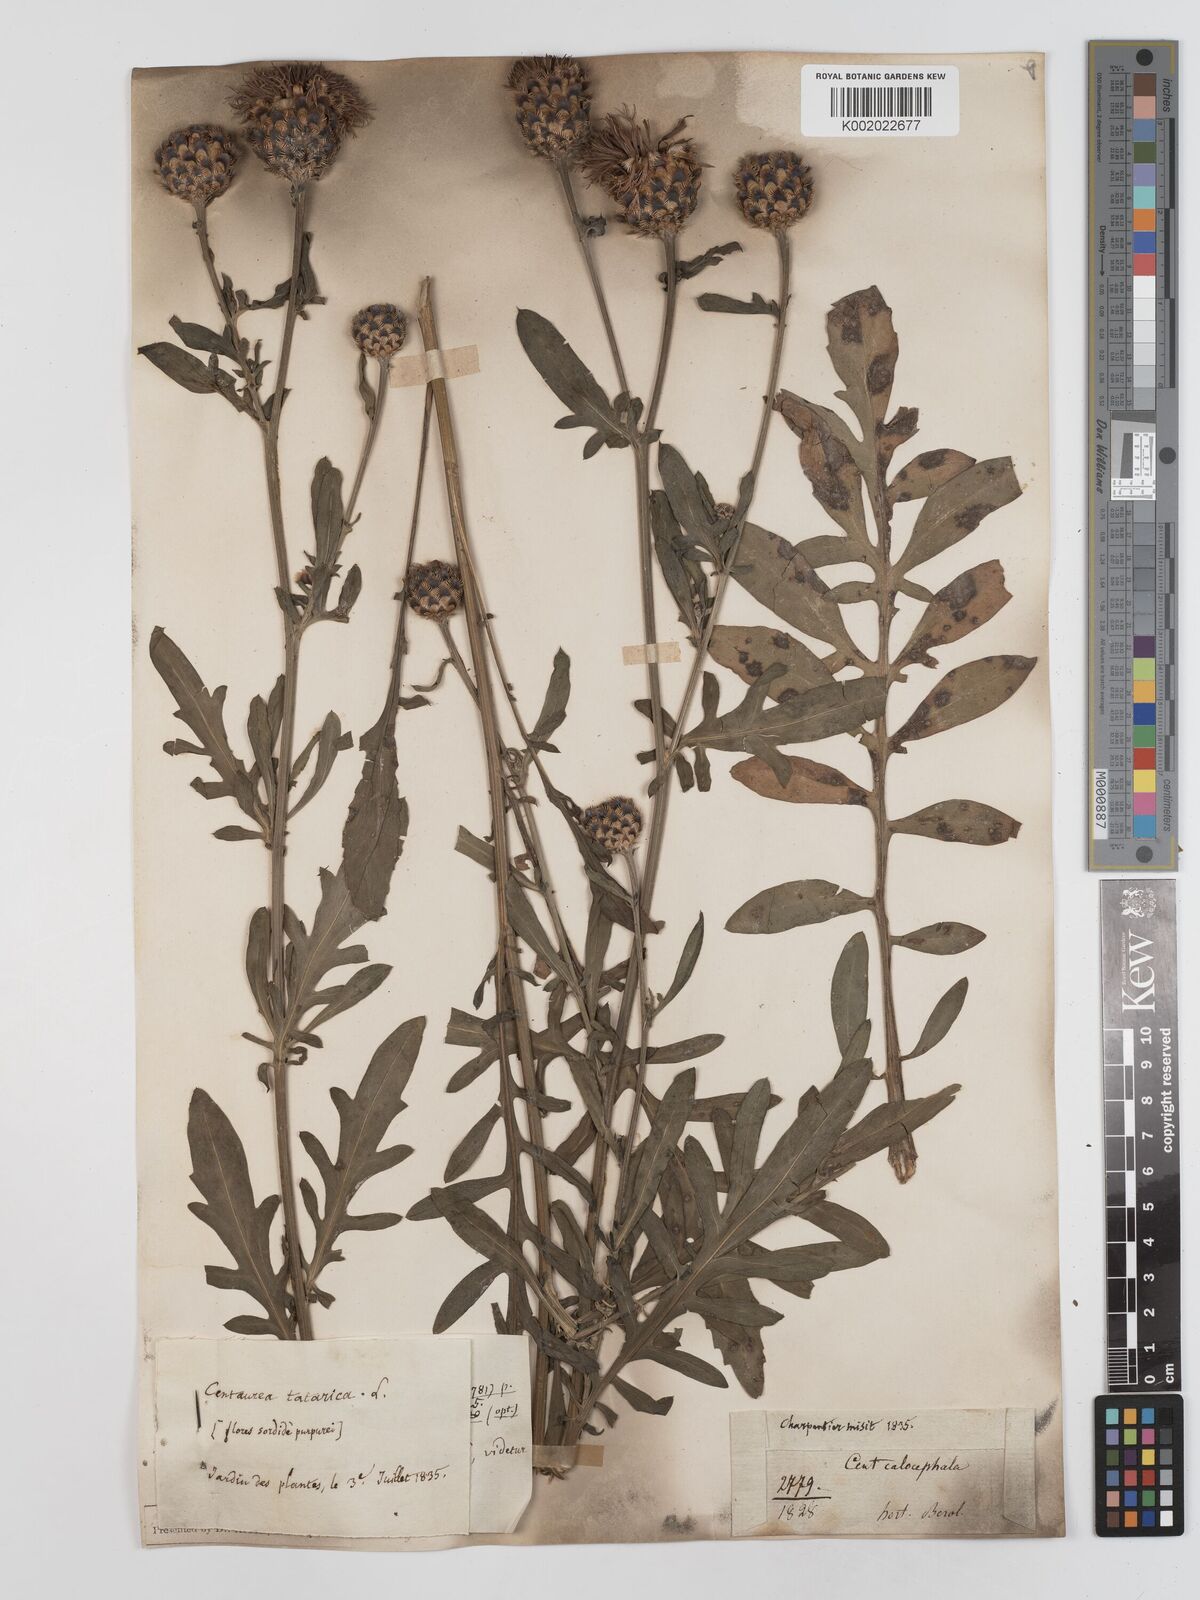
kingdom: Plantae
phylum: Tracheophyta
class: Magnoliopsida
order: Asterales
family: Asteraceae
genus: Centaurea
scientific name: Centaurea calocephala
